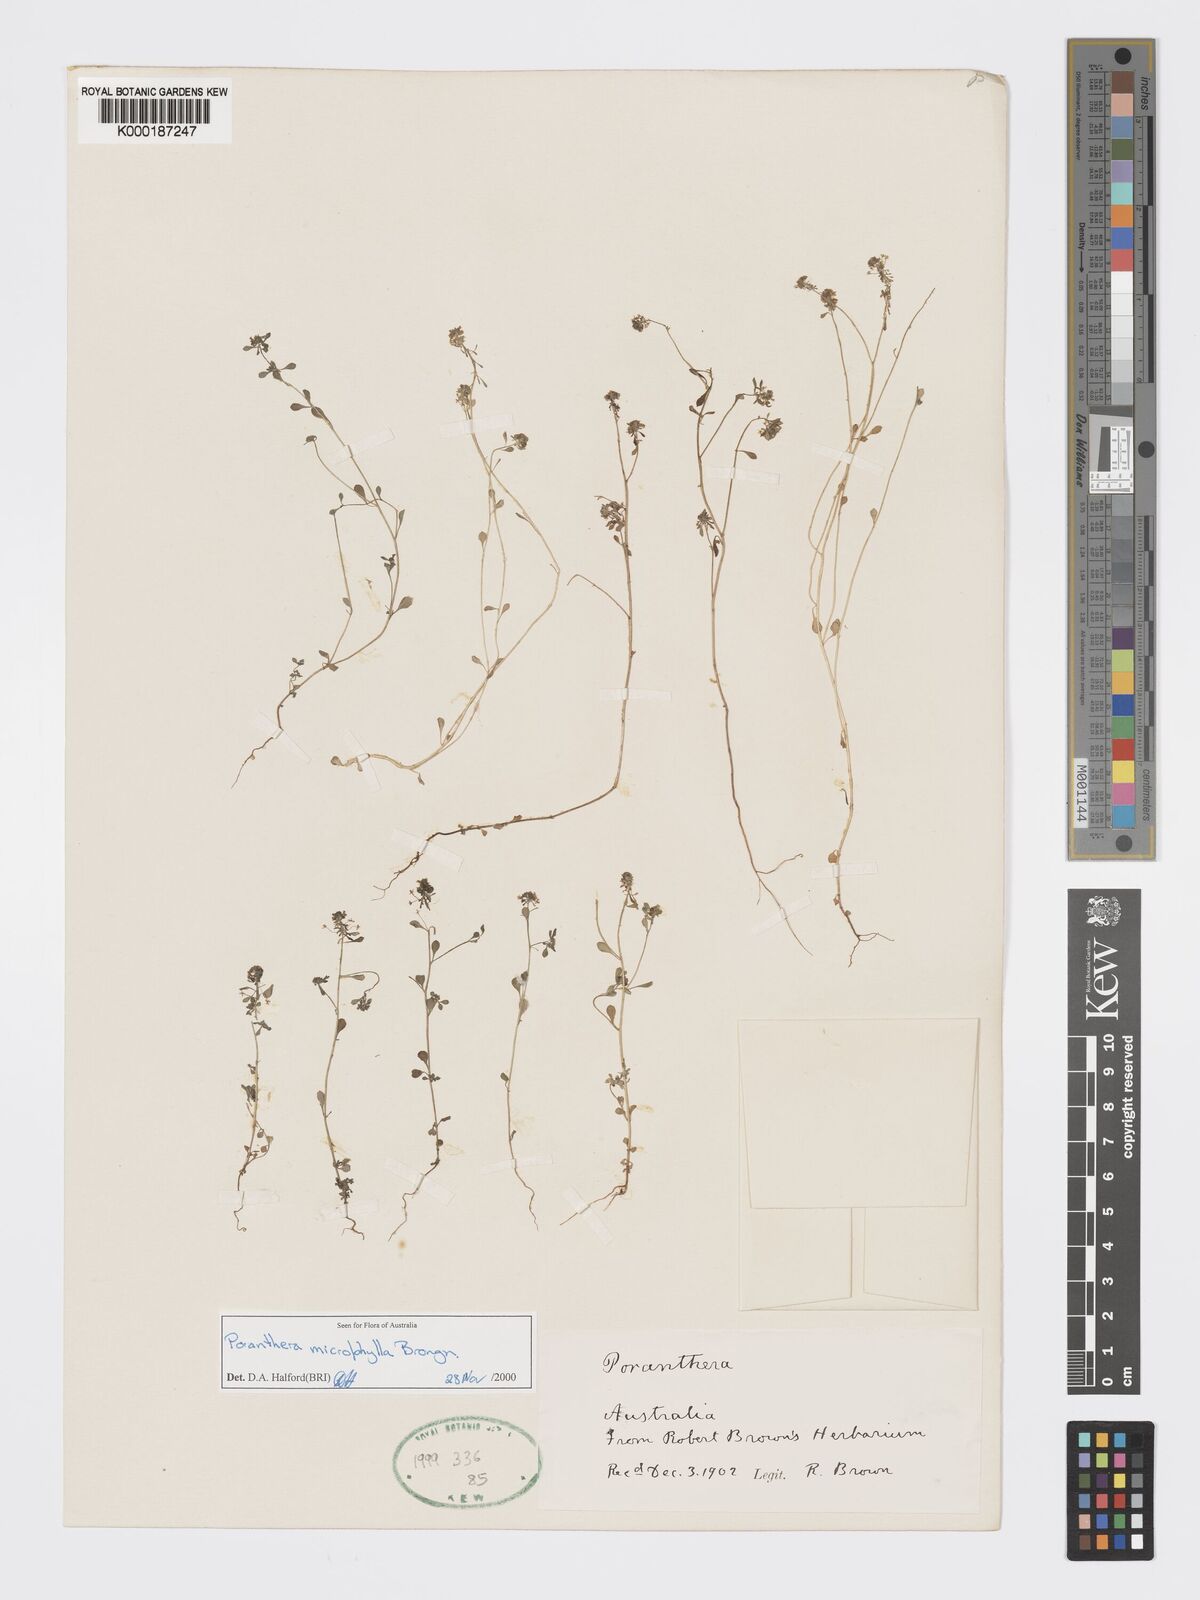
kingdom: Plantae
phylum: Tracheophyta
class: Magnoliopsida
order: Malpighiales
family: Phyllanthaceae
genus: Poranthera
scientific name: Poranthera microphylla
